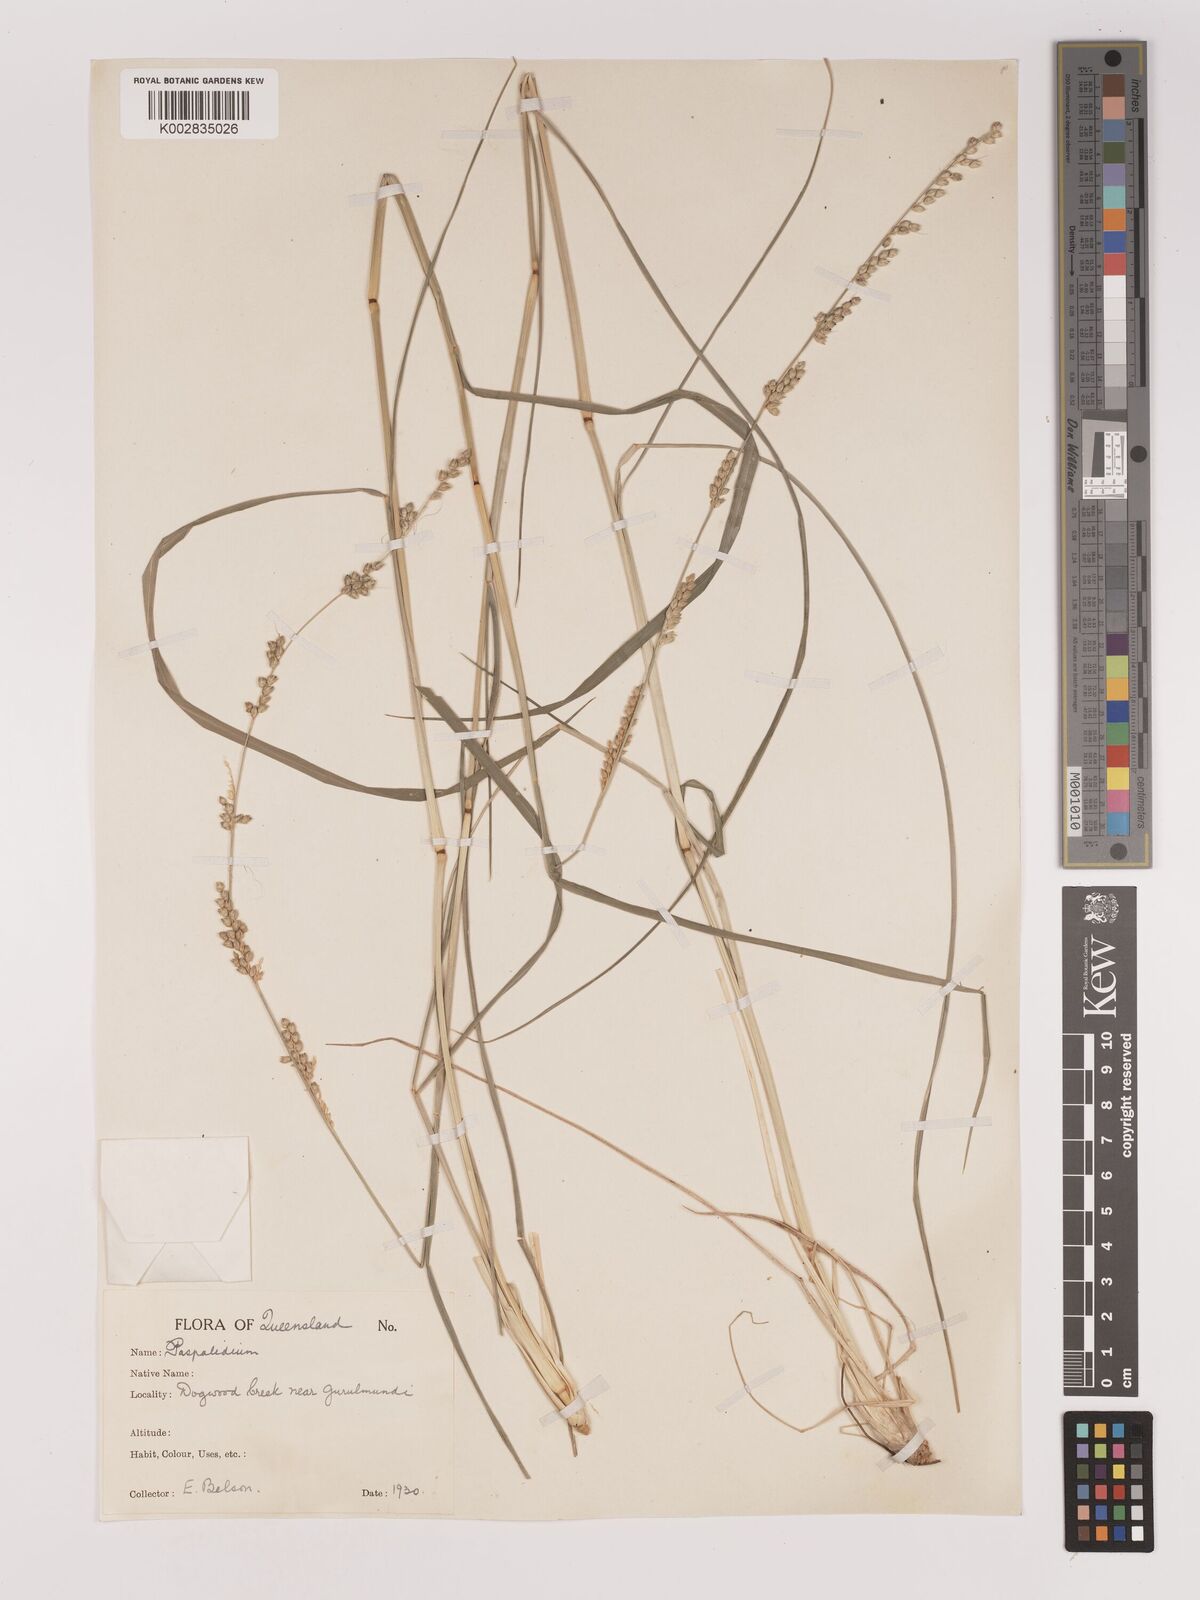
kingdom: Plantae
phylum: Tracheophyta
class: Liliopsida
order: Poales
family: Poaceae
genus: Setaria
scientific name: Setaria
